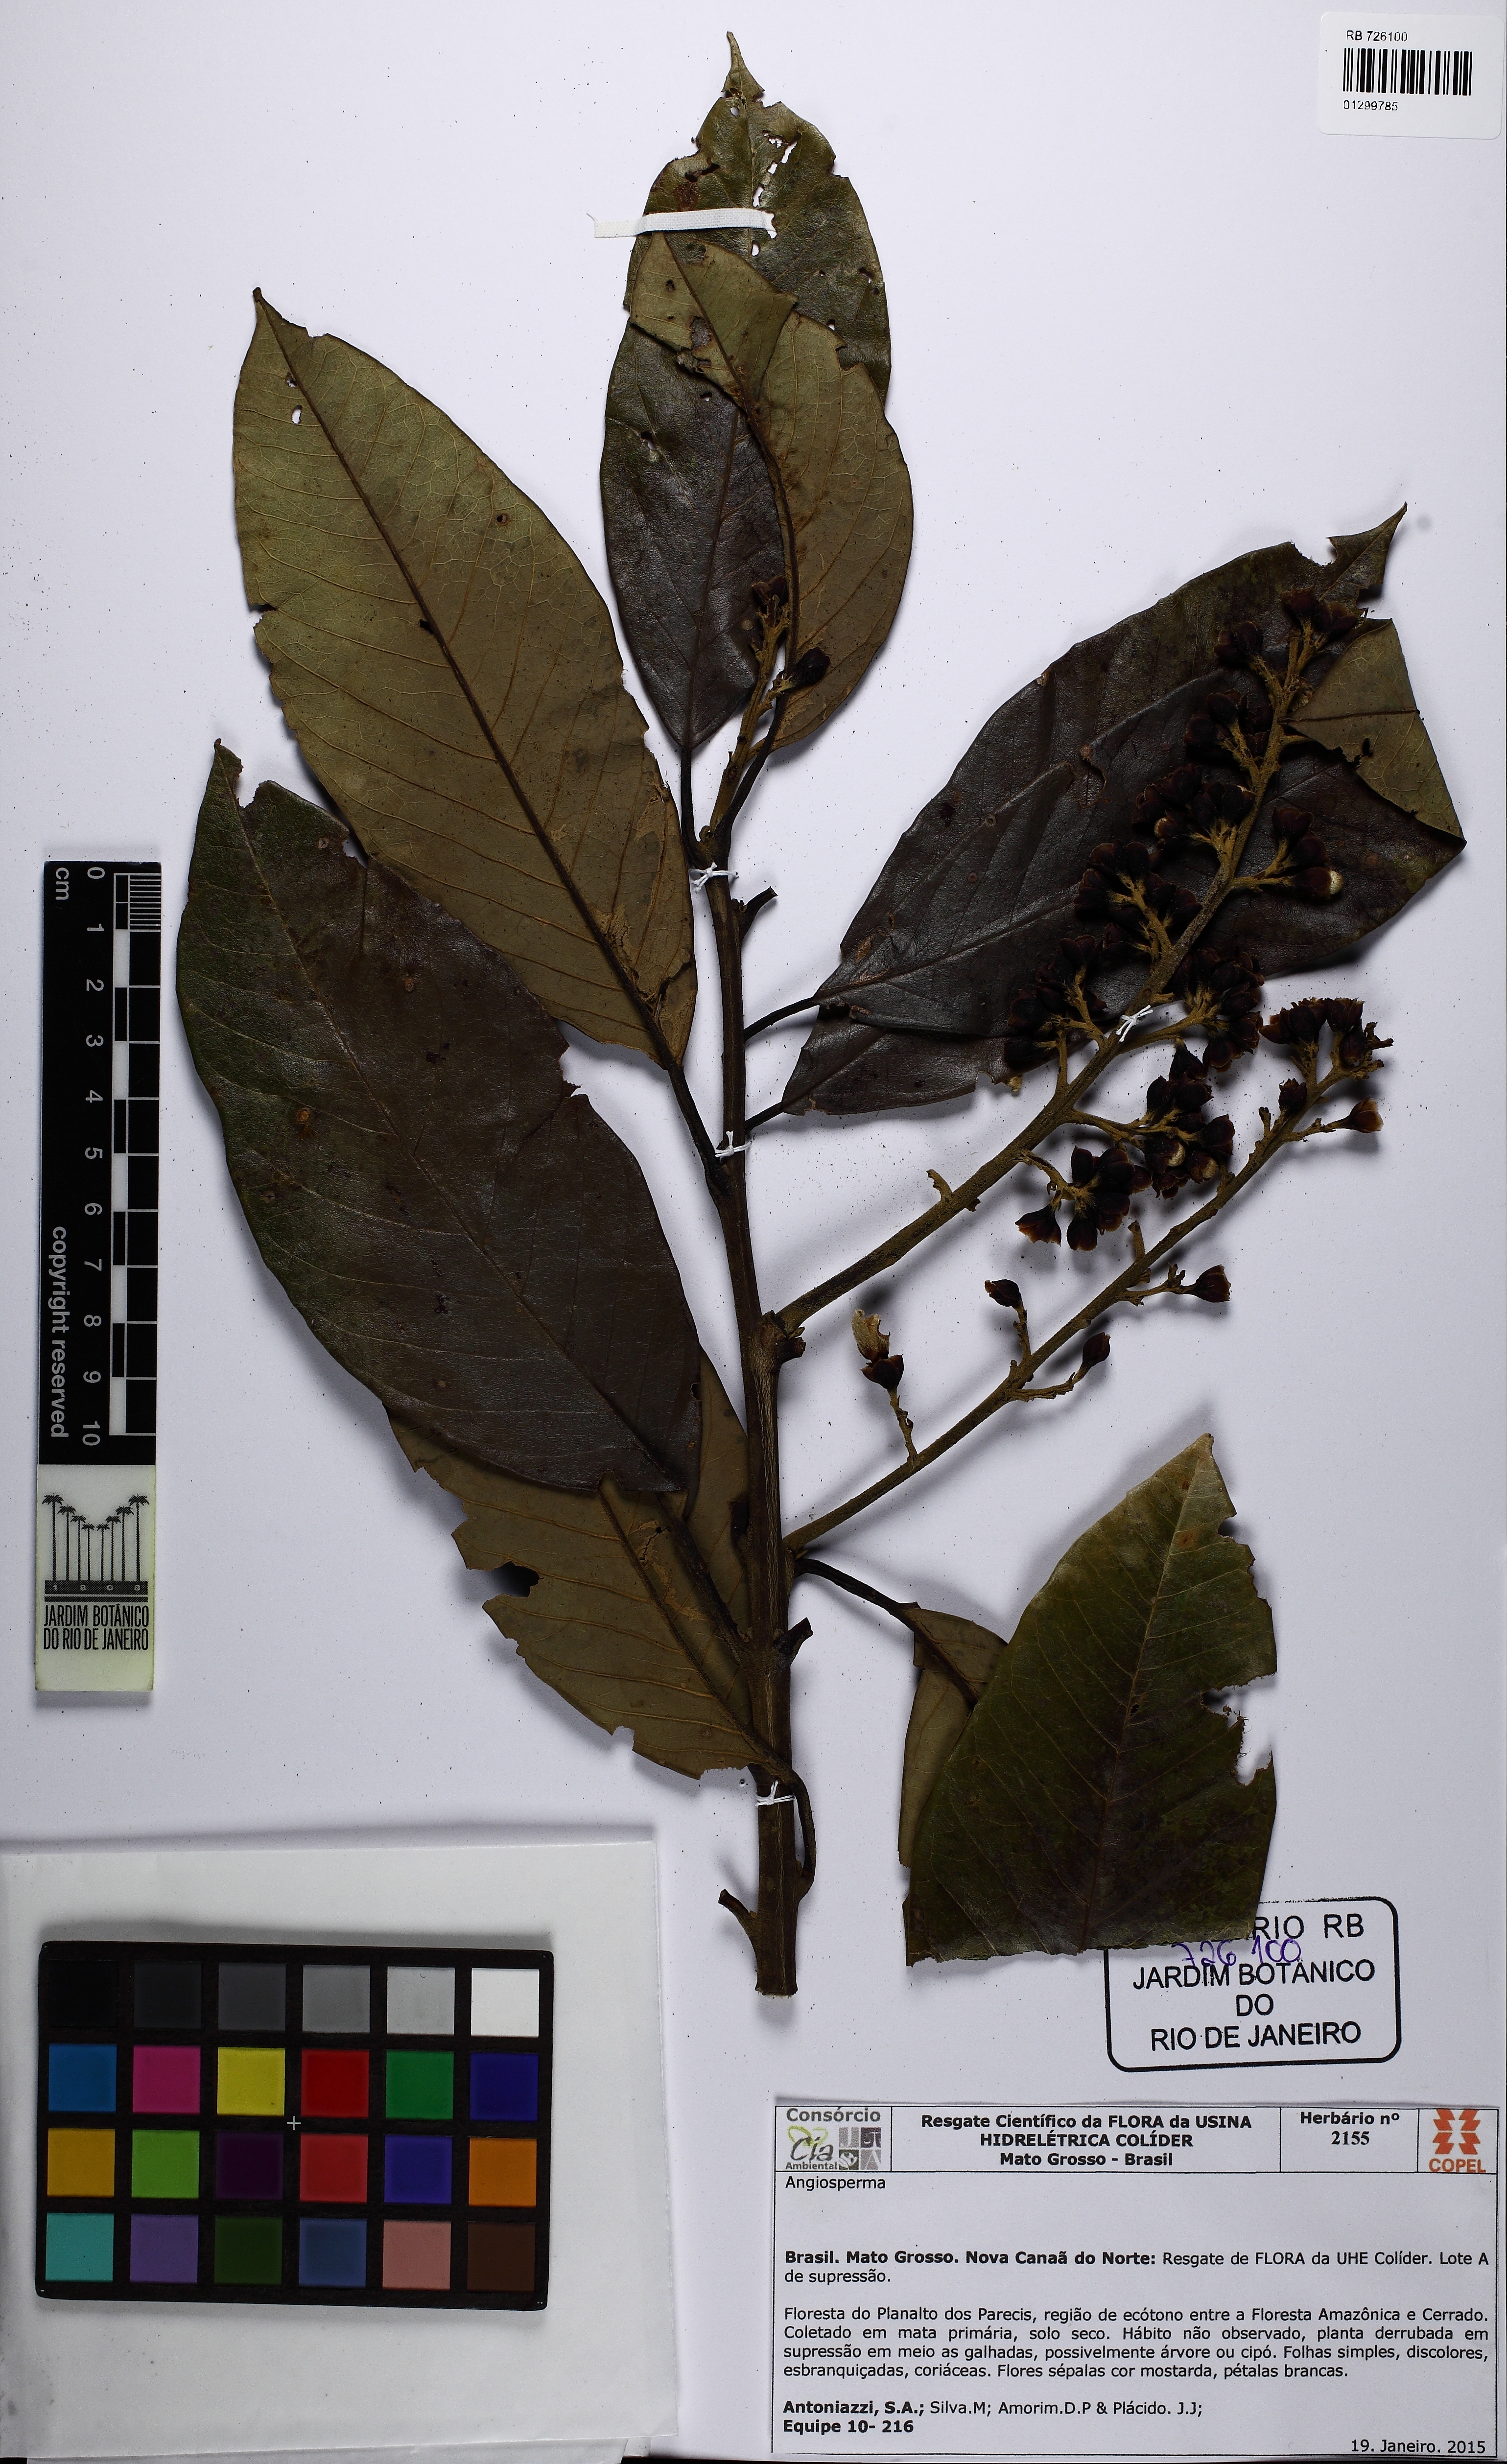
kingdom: Plantae
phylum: Tracheophyta
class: Magnoliopsida
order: Solanales
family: Convolvulaceae
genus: Maripa
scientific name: Maripa elongata
